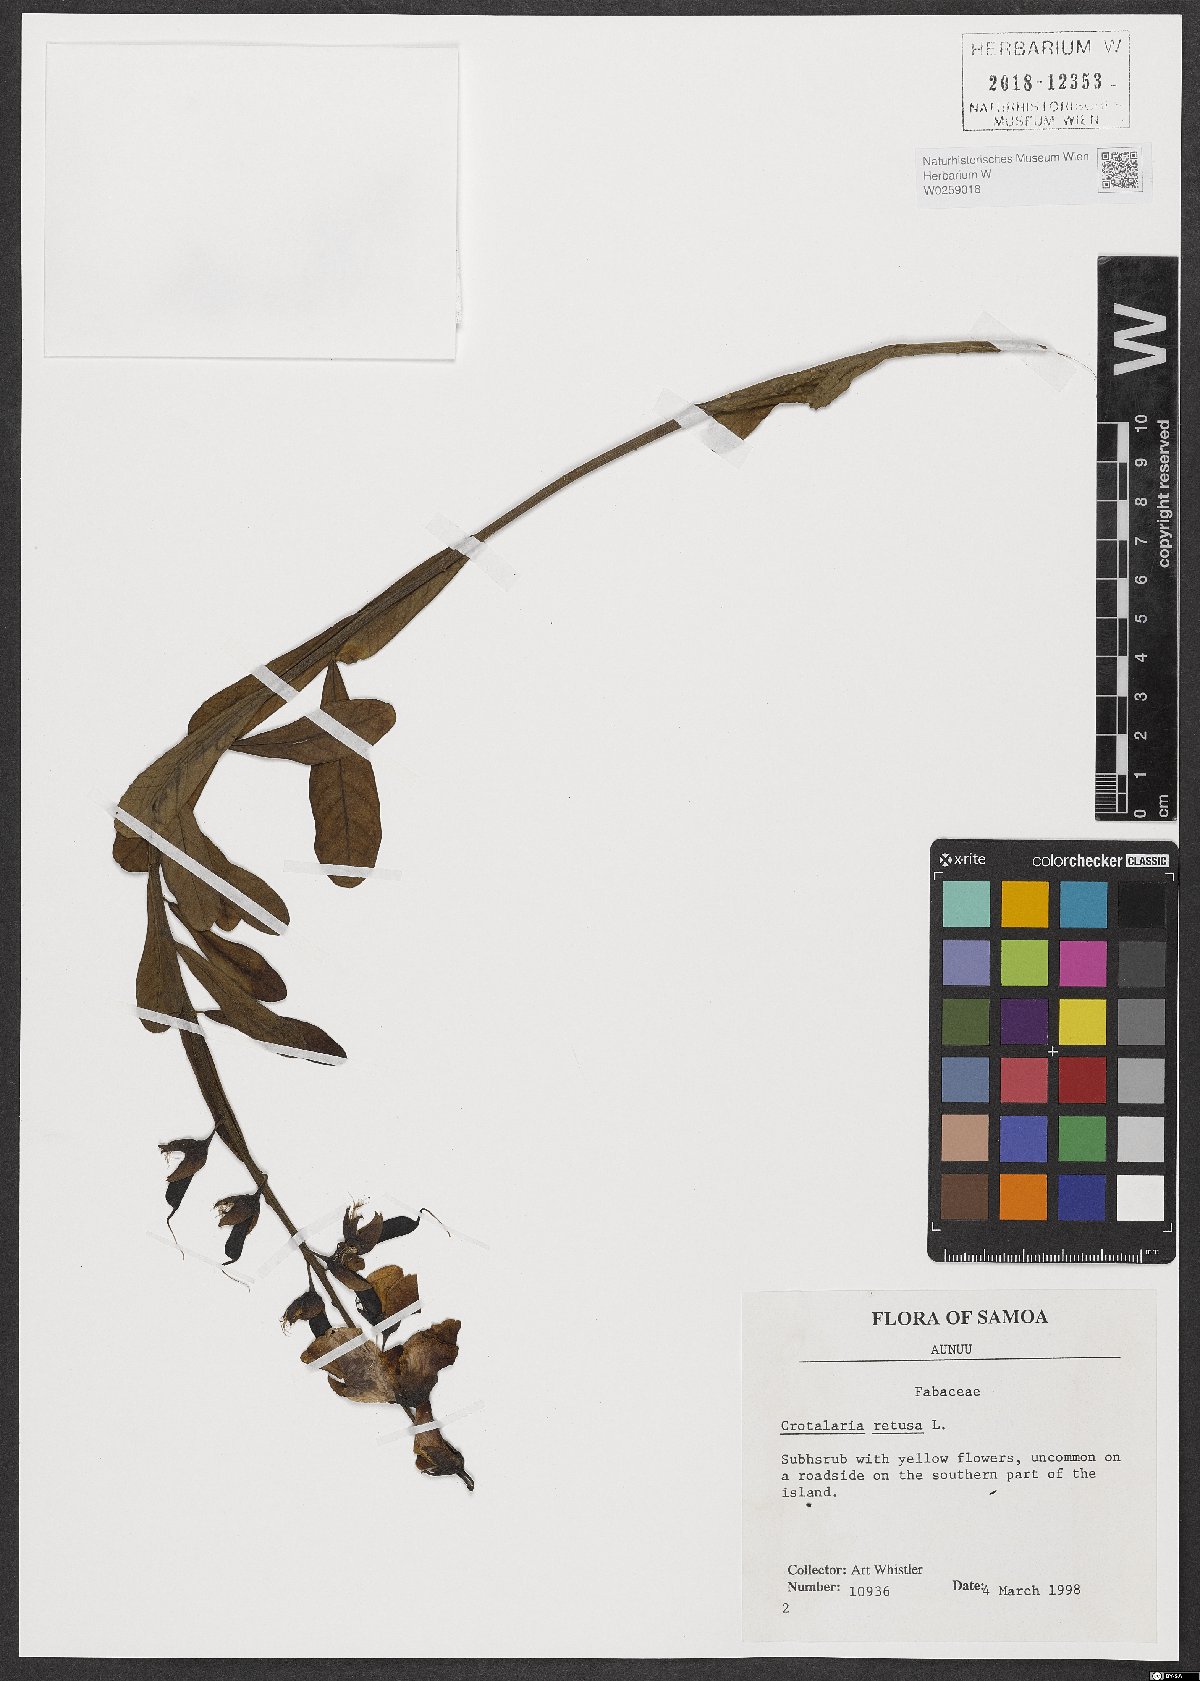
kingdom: Plantae
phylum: Tracheophyta
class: Magnoliopsida
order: Fabales
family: Fabaceae
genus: Crotalaria
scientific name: Crotalaria retusa
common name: Rattleweed
